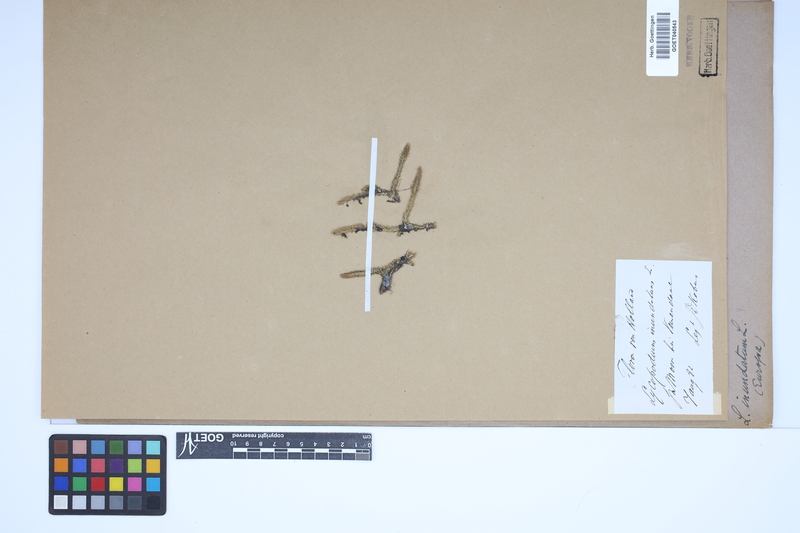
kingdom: Plantae
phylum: Tracheophyta
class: Lycopodiopsida
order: Lycopodiales
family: Lycopodiaceae
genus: Lycopodiella
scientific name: Lycopodiella inundata
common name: Marsh clubmoss
